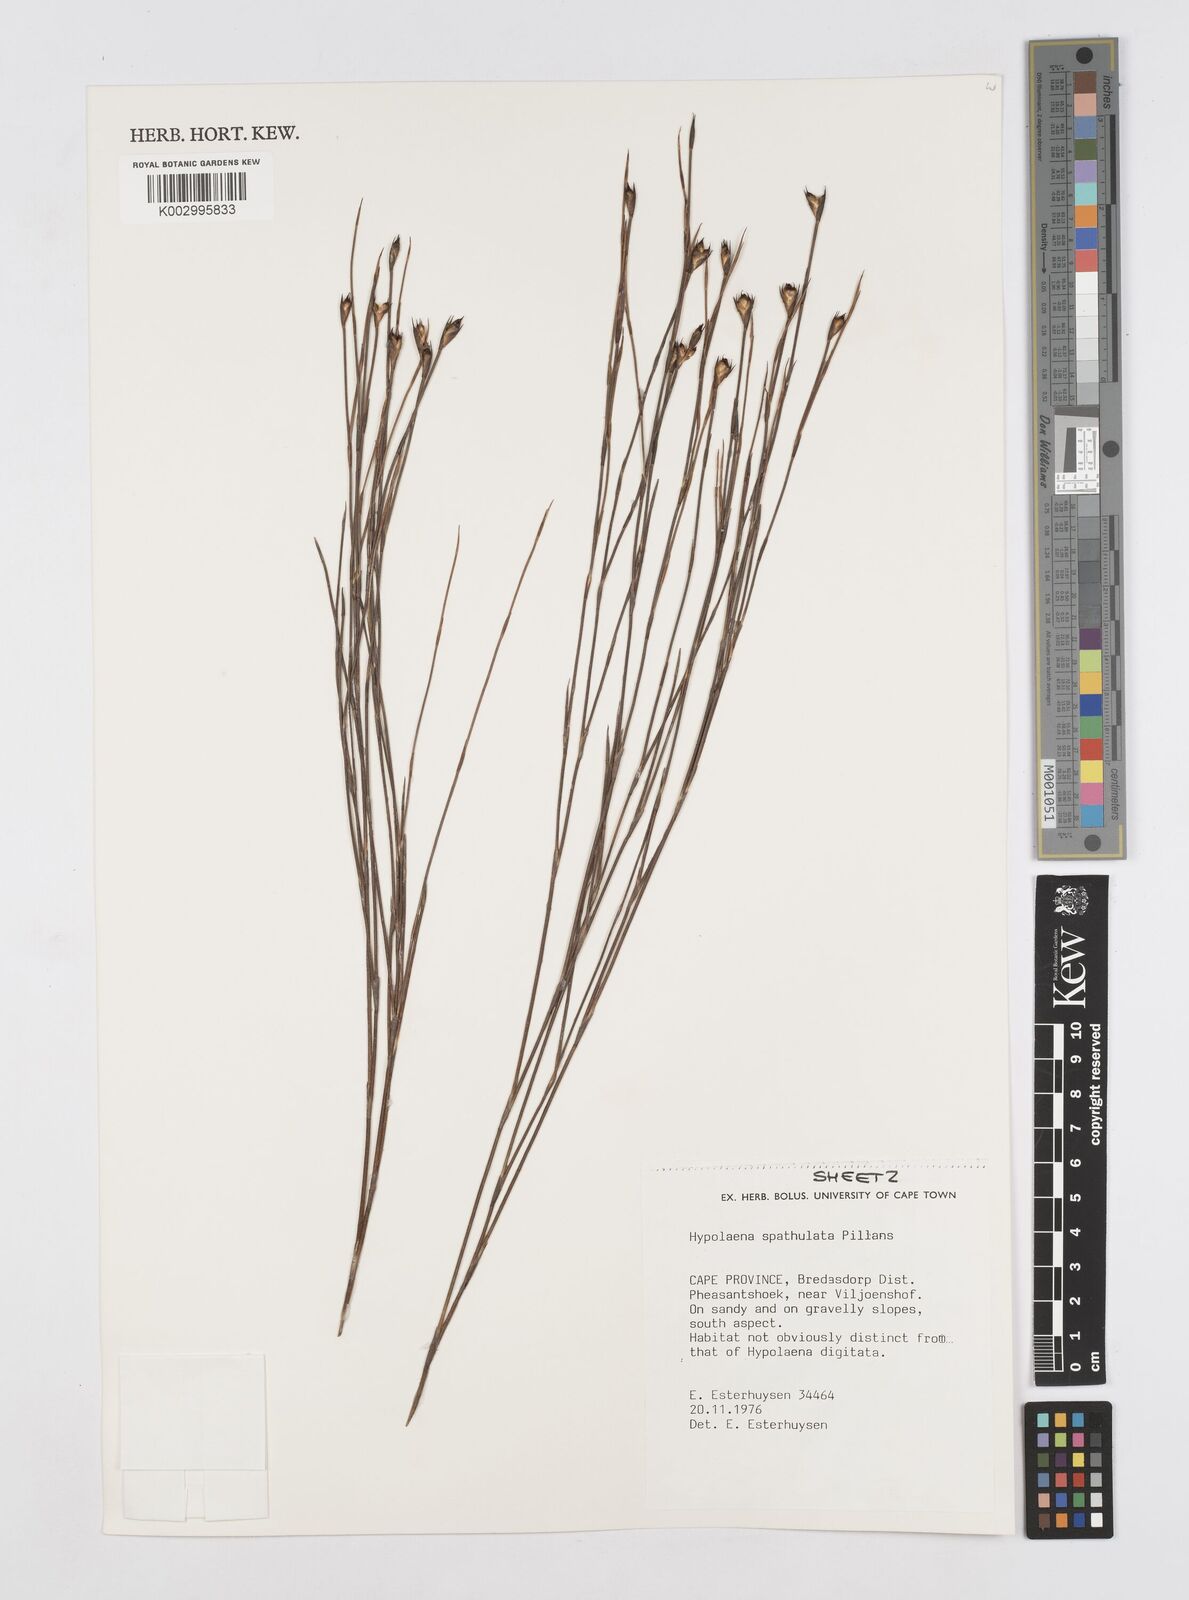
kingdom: Plantae
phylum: Tracheophyta
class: Liliopsida
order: Poales
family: Restionaceae
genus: Mastersiella
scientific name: Mastersiella spathulata
